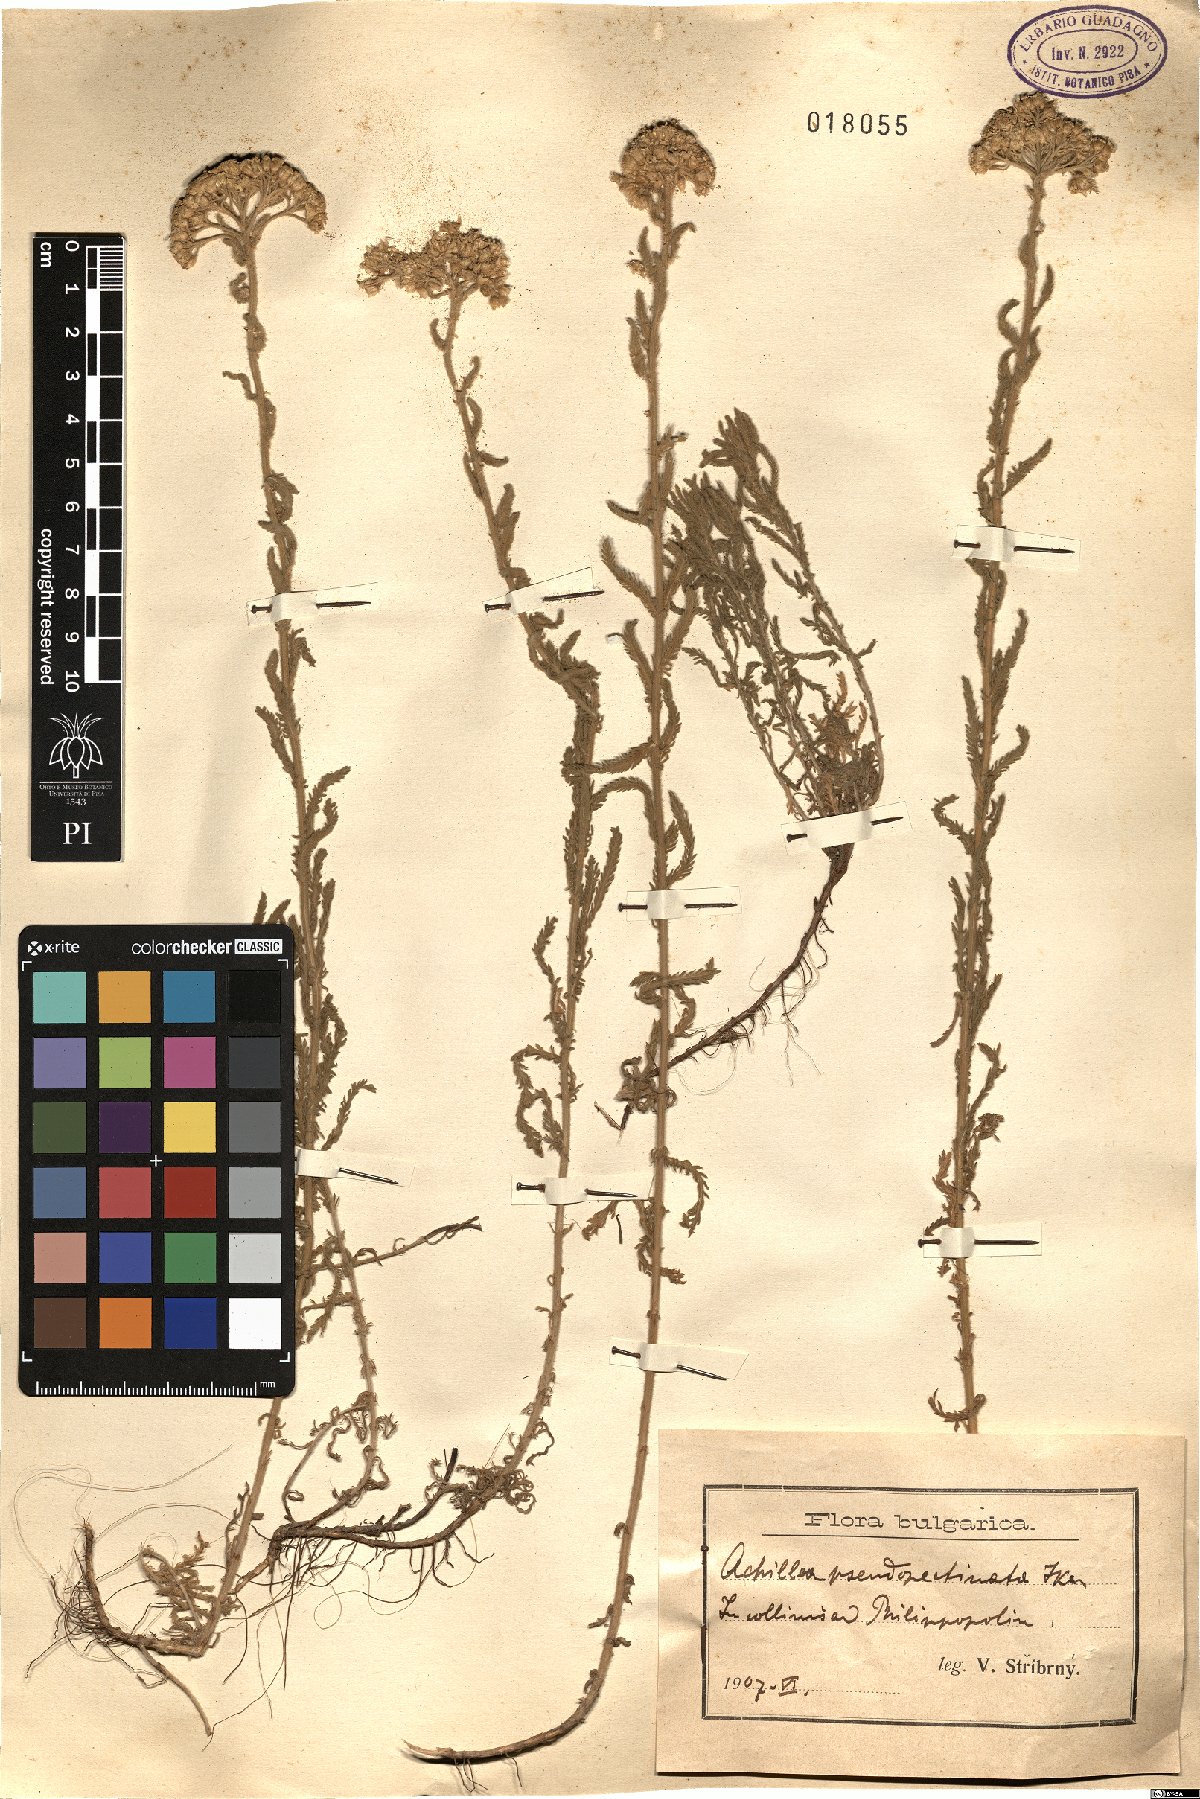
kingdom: Plantae
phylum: Tracheophyta
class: Magnoliopsida
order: Asterales
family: Asteraceae
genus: Achillea
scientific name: Achillea pseudopectinata
